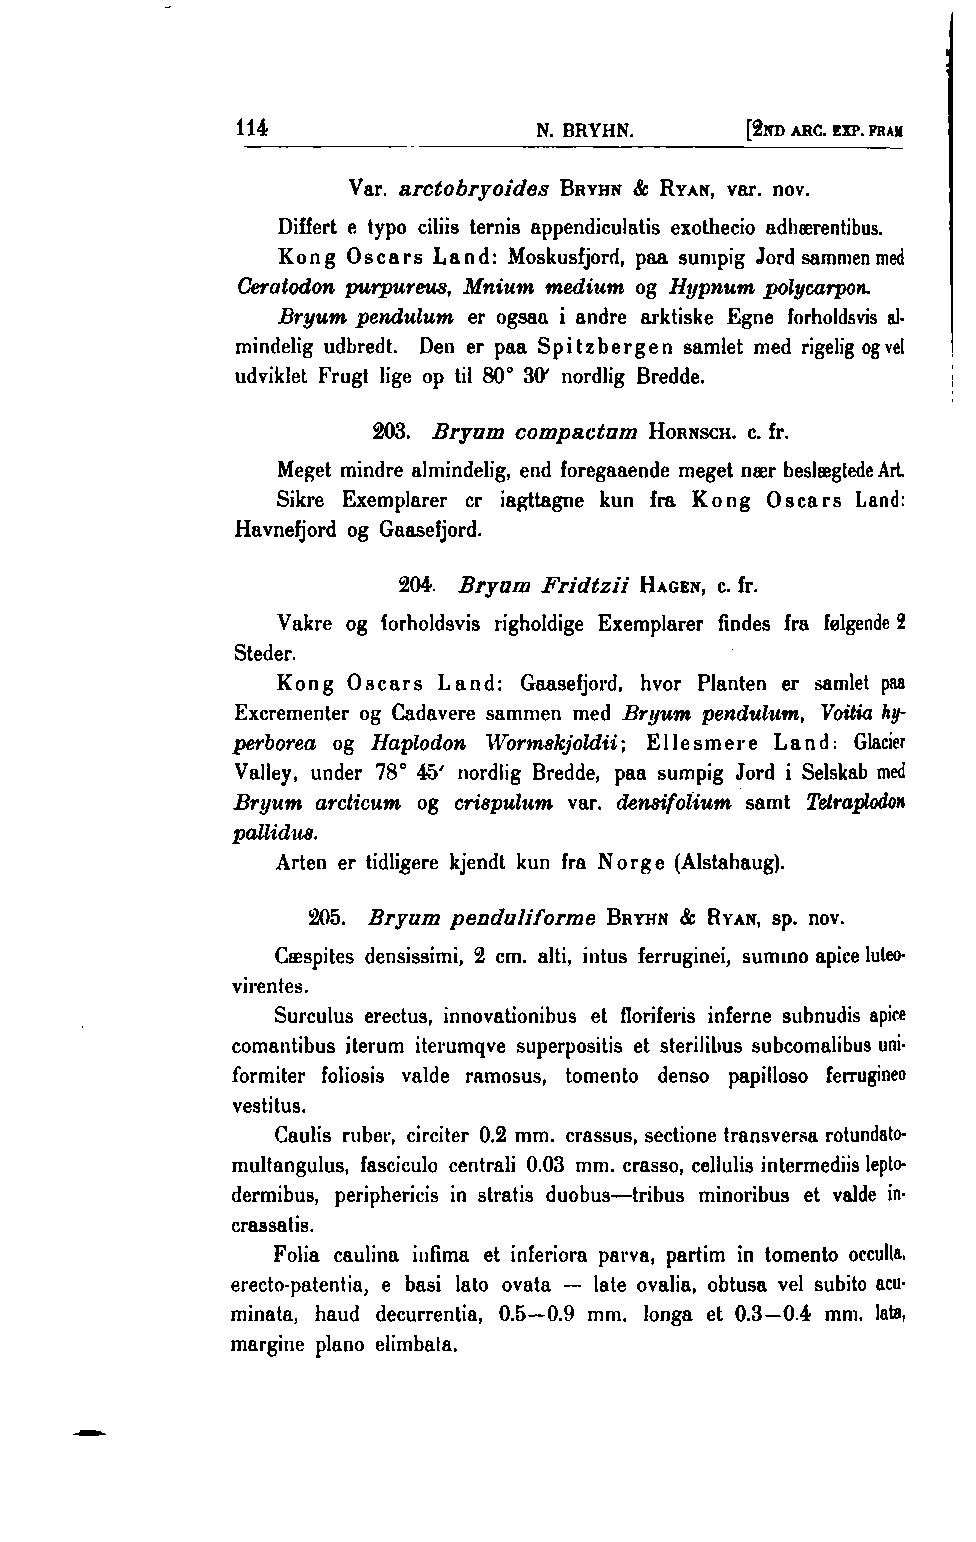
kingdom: Plantae
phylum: Bryophyta
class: Bryopsida
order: Bryales
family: Bryaceae
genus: Ptychostomum
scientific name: Ptychostomum compactum
